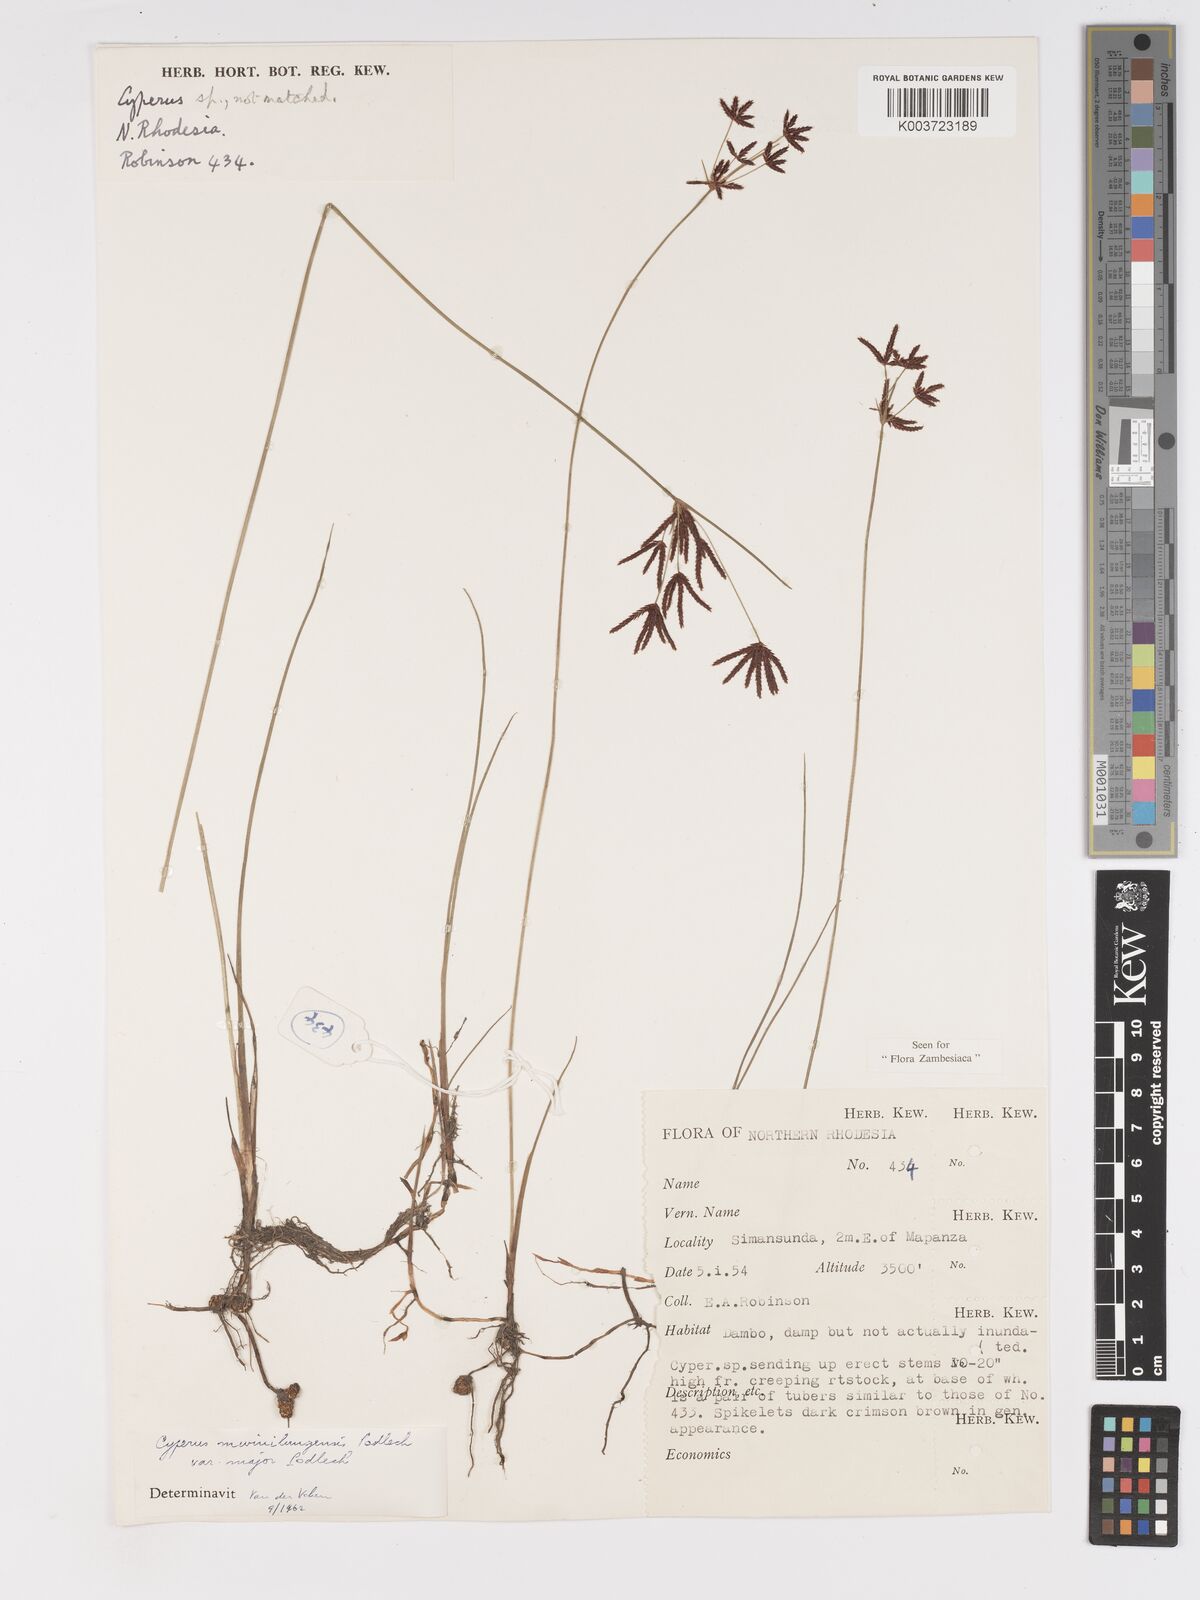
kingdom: Plantae
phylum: Tracheophyta
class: Liliopsida
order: Poales
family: Cyperaceae
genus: Cyperus
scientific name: Cyperus mwinilungensis
